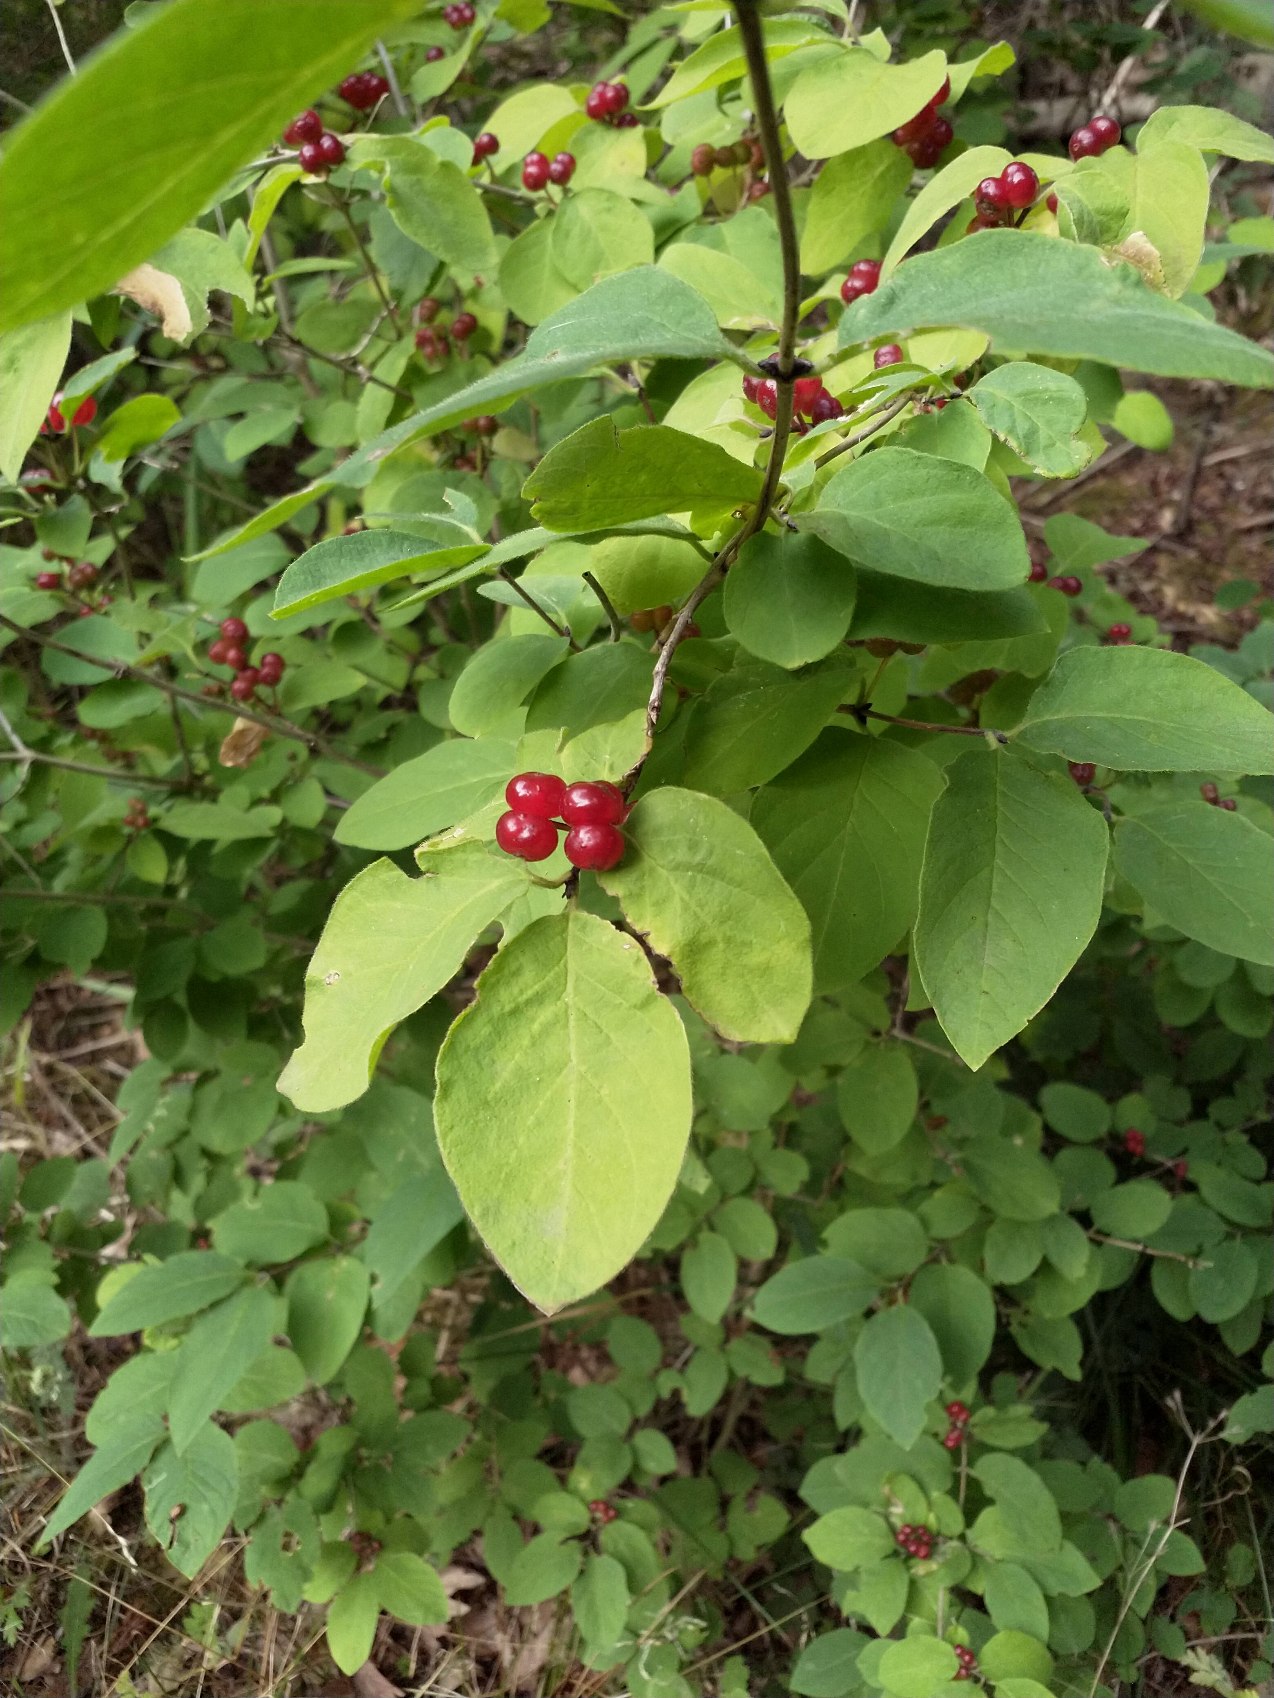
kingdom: Plantae
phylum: Tracheophyta
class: Magnoliopsida
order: Dipsacales
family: Caprifoliaceae
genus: Lonicera
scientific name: Lonicera xylosteum
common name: Dunet gedeblad
